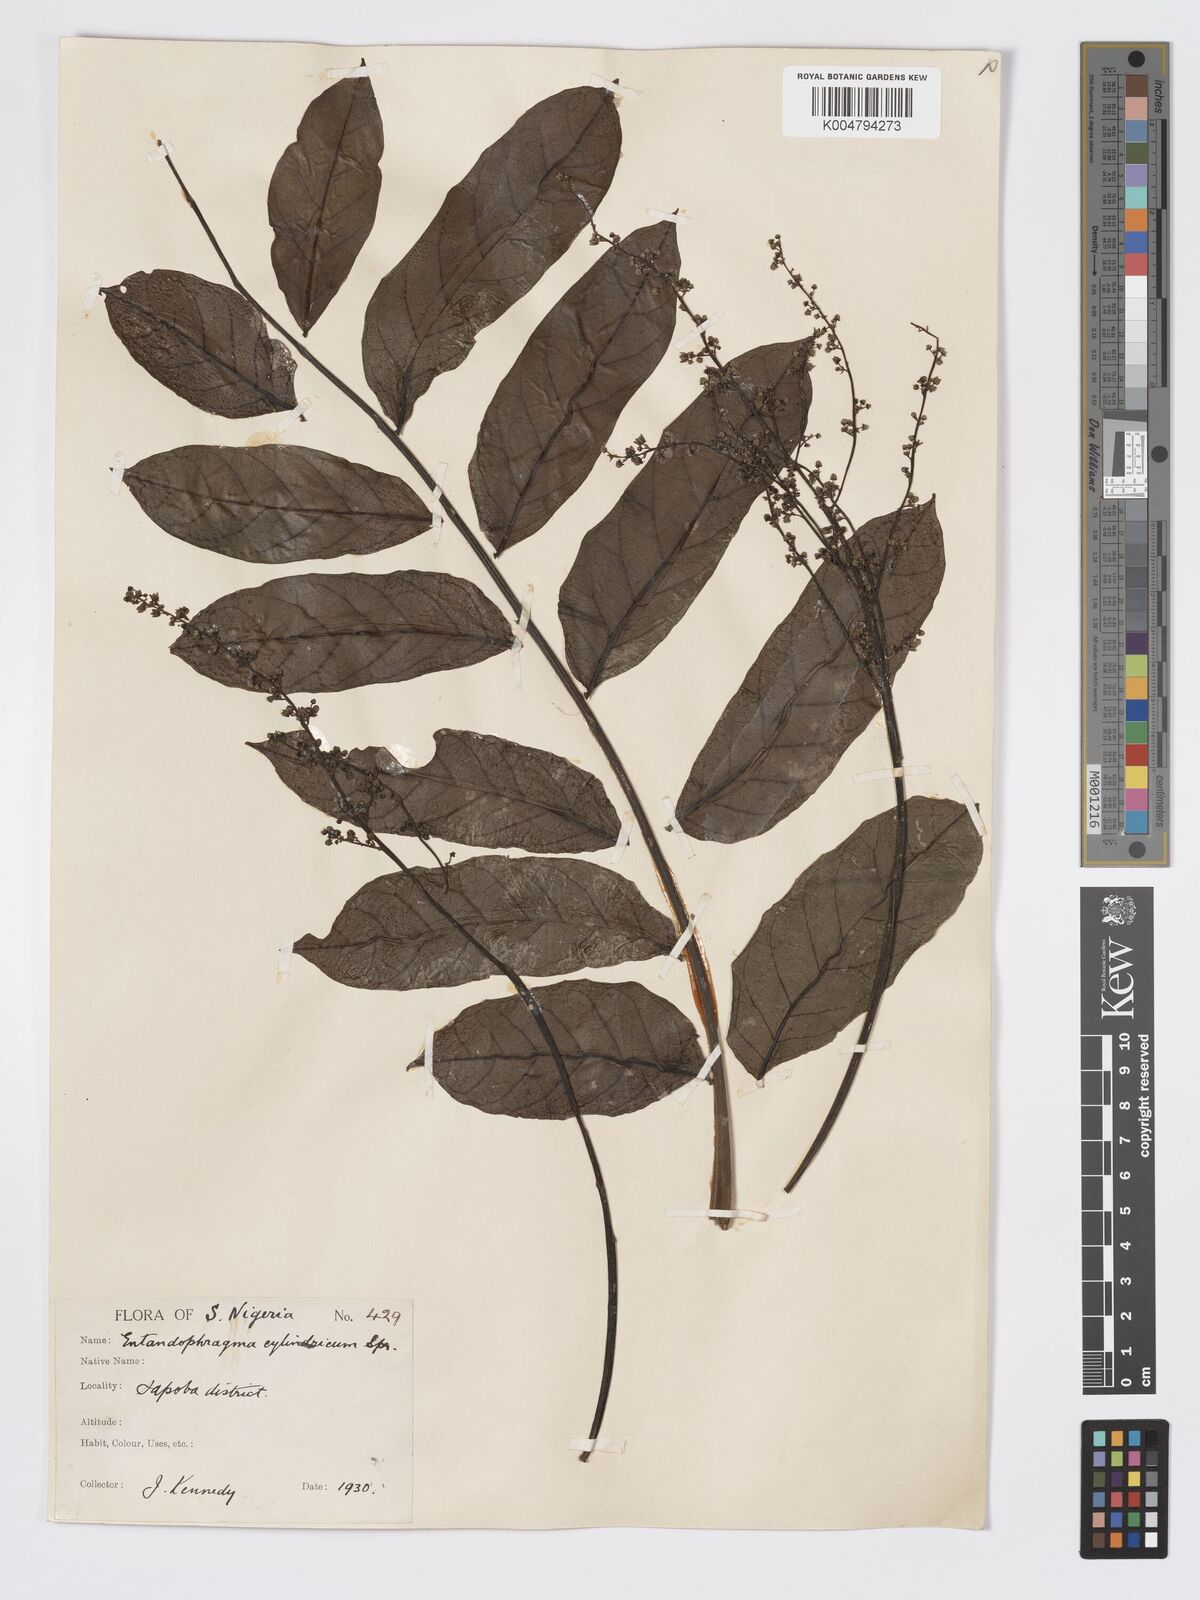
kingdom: Plantae
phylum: Tracheophyta
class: Magnoliopsida
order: Sapindales
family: Meliaceae
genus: Entandrophragma
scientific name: Entandrophragma cylindricum
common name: Sapele
